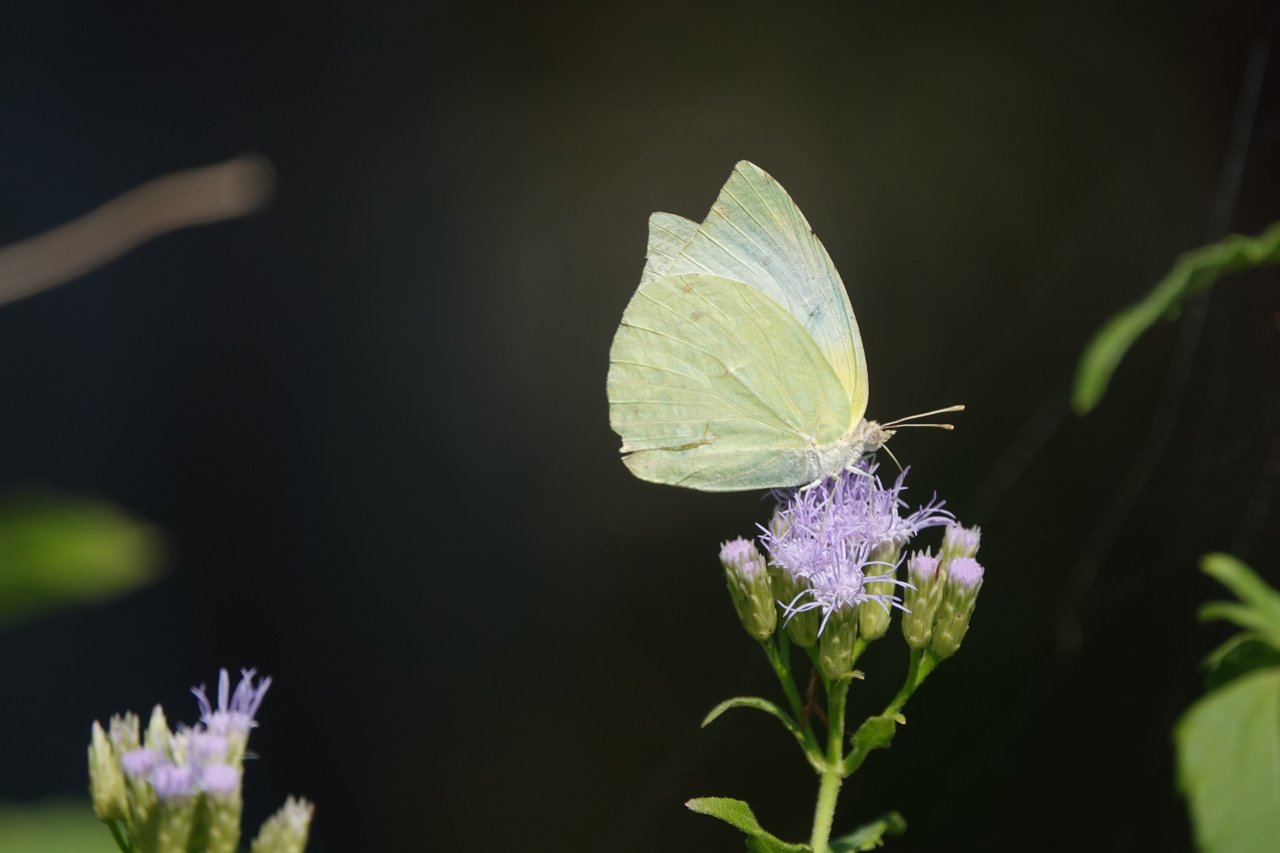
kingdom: Animalia
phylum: Arthropoda
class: Insecta
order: Lepidoptera
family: Pieridae
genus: Kricogonia
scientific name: Kricogonia lyside
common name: Lyside Sulphur
